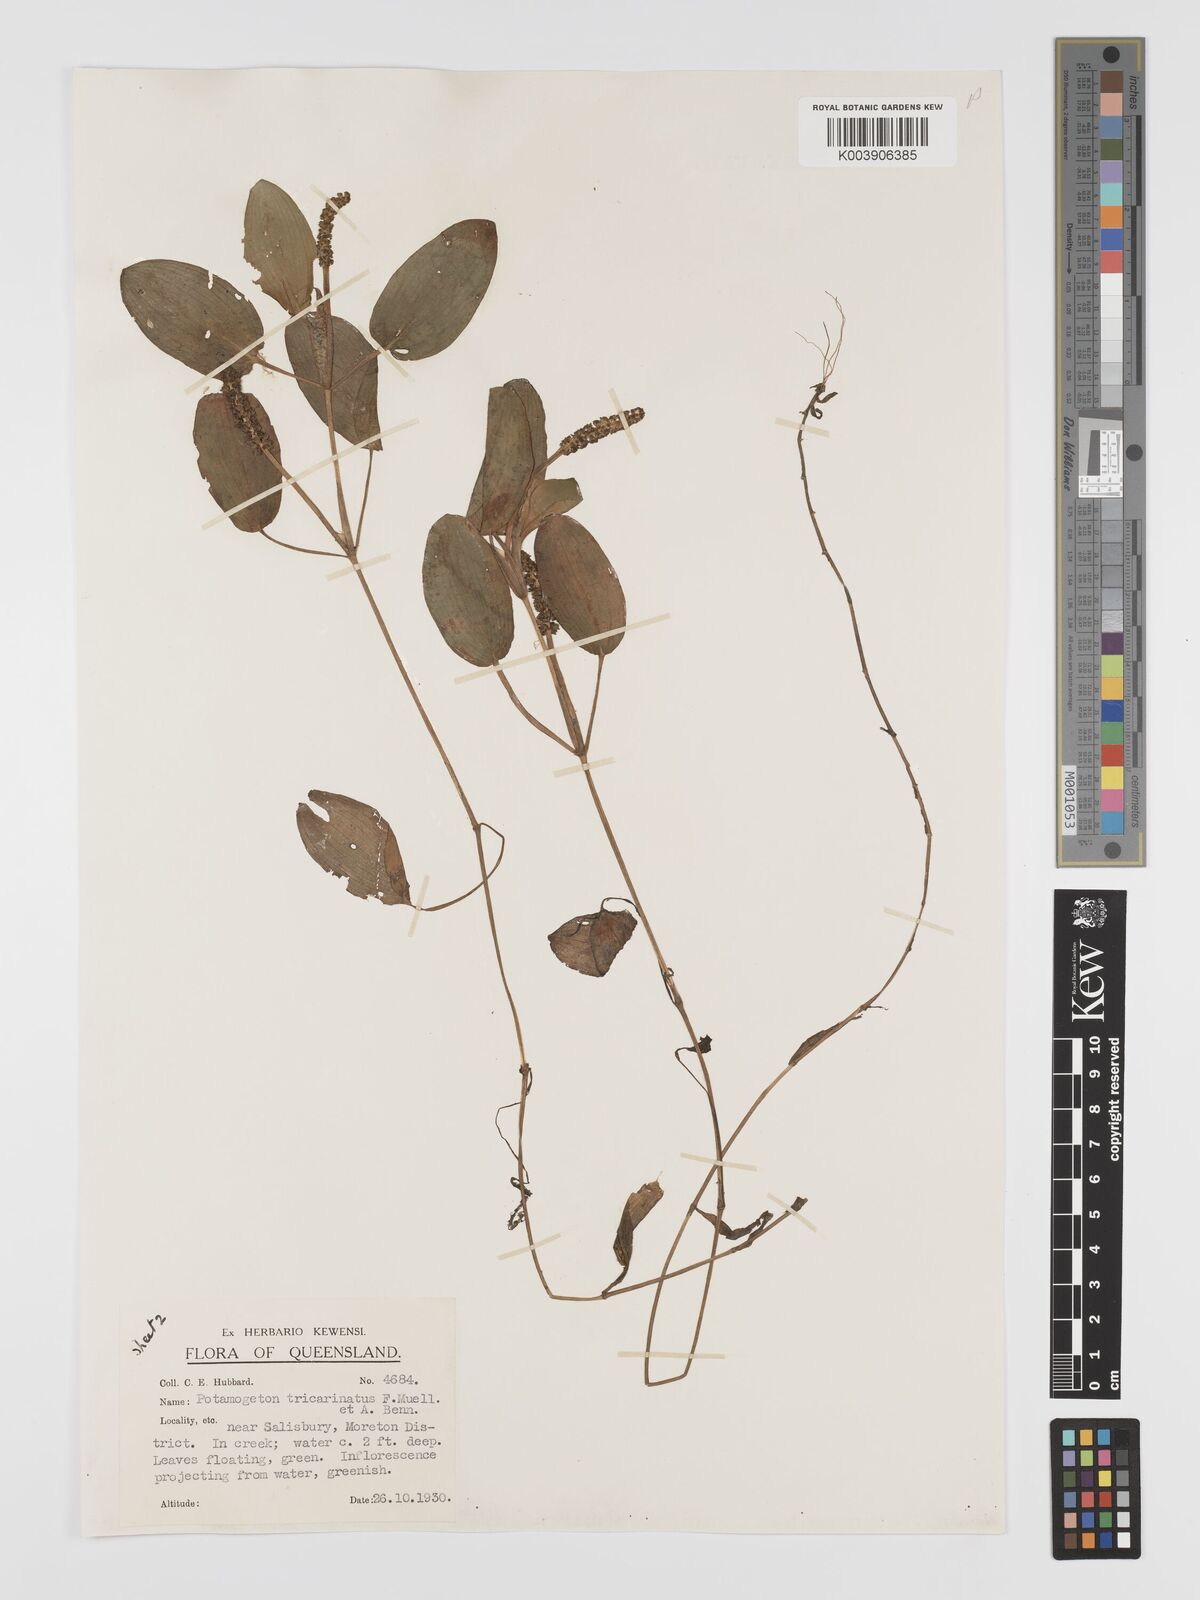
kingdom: Plantae
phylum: Tracheophyta
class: Liliopsida
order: Alismatales
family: Potamogetonaceae
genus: Potamogeton
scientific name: Potamogeton tricarinatus
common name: Pondweed
